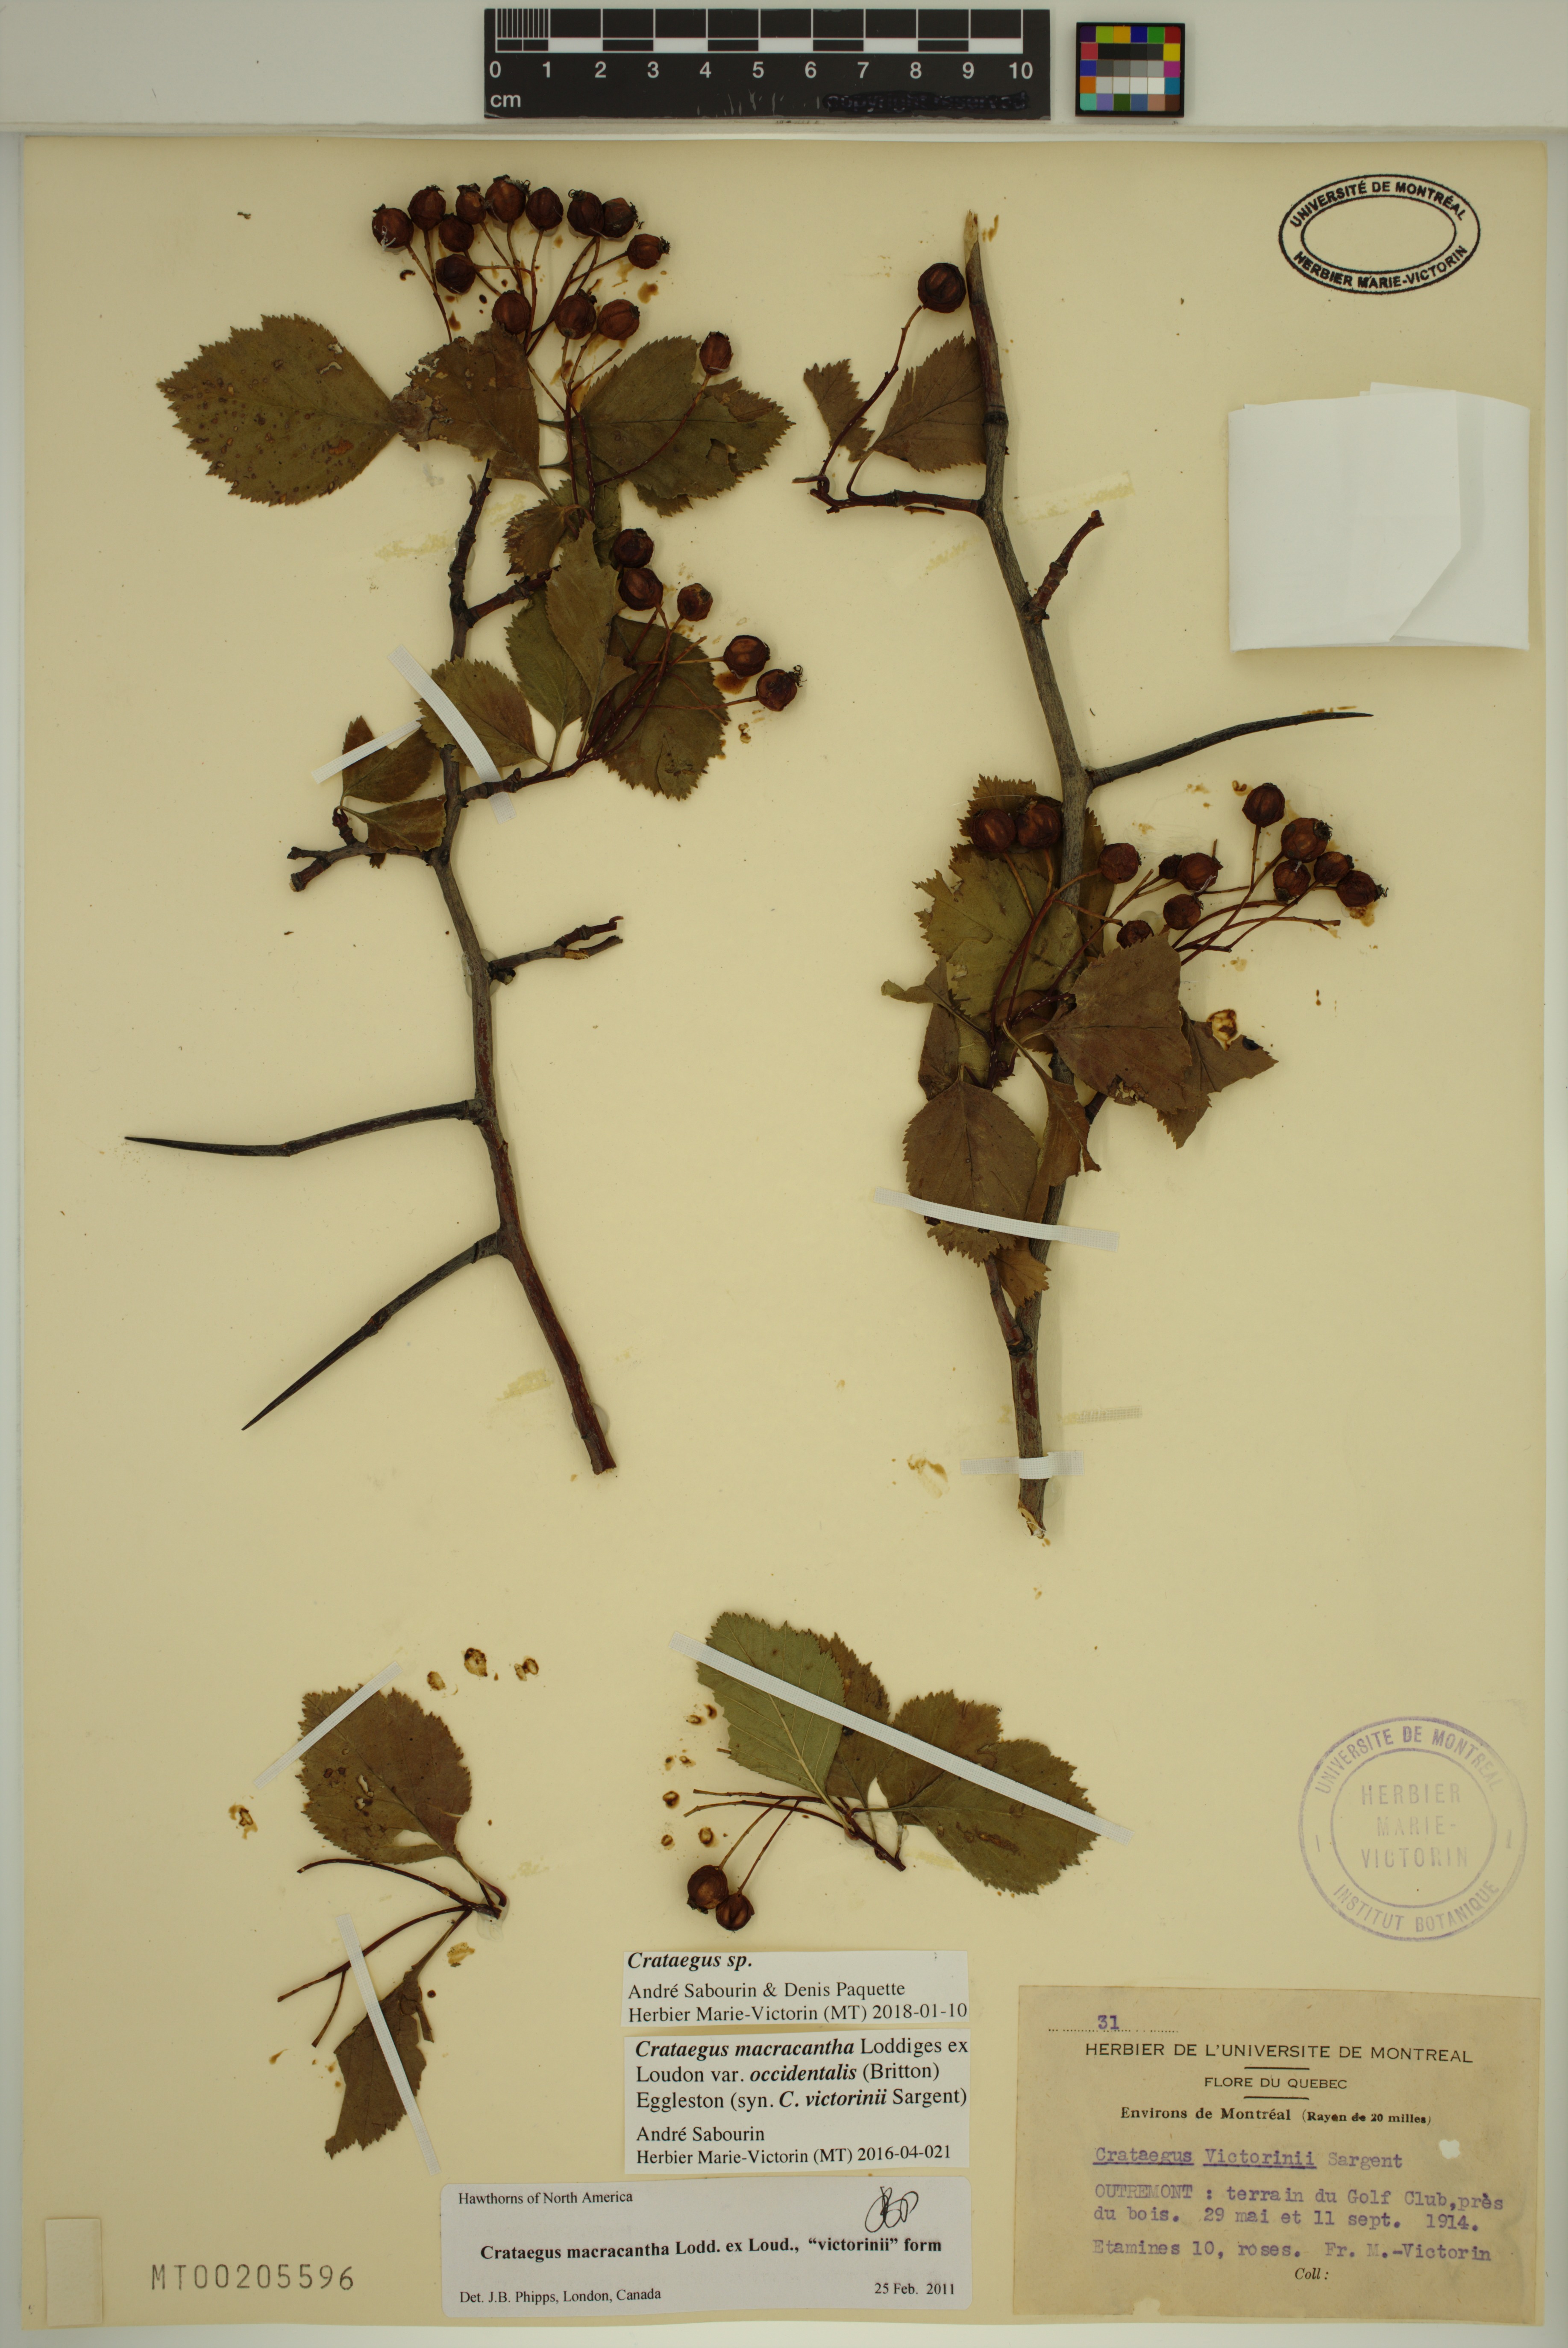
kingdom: Plantae
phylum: Tracheophyta
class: Magnoliopsida
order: Rosales
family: Rosaceae
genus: Crataegus
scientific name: Crataegus macracantha
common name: Large-thorn hawthorn
